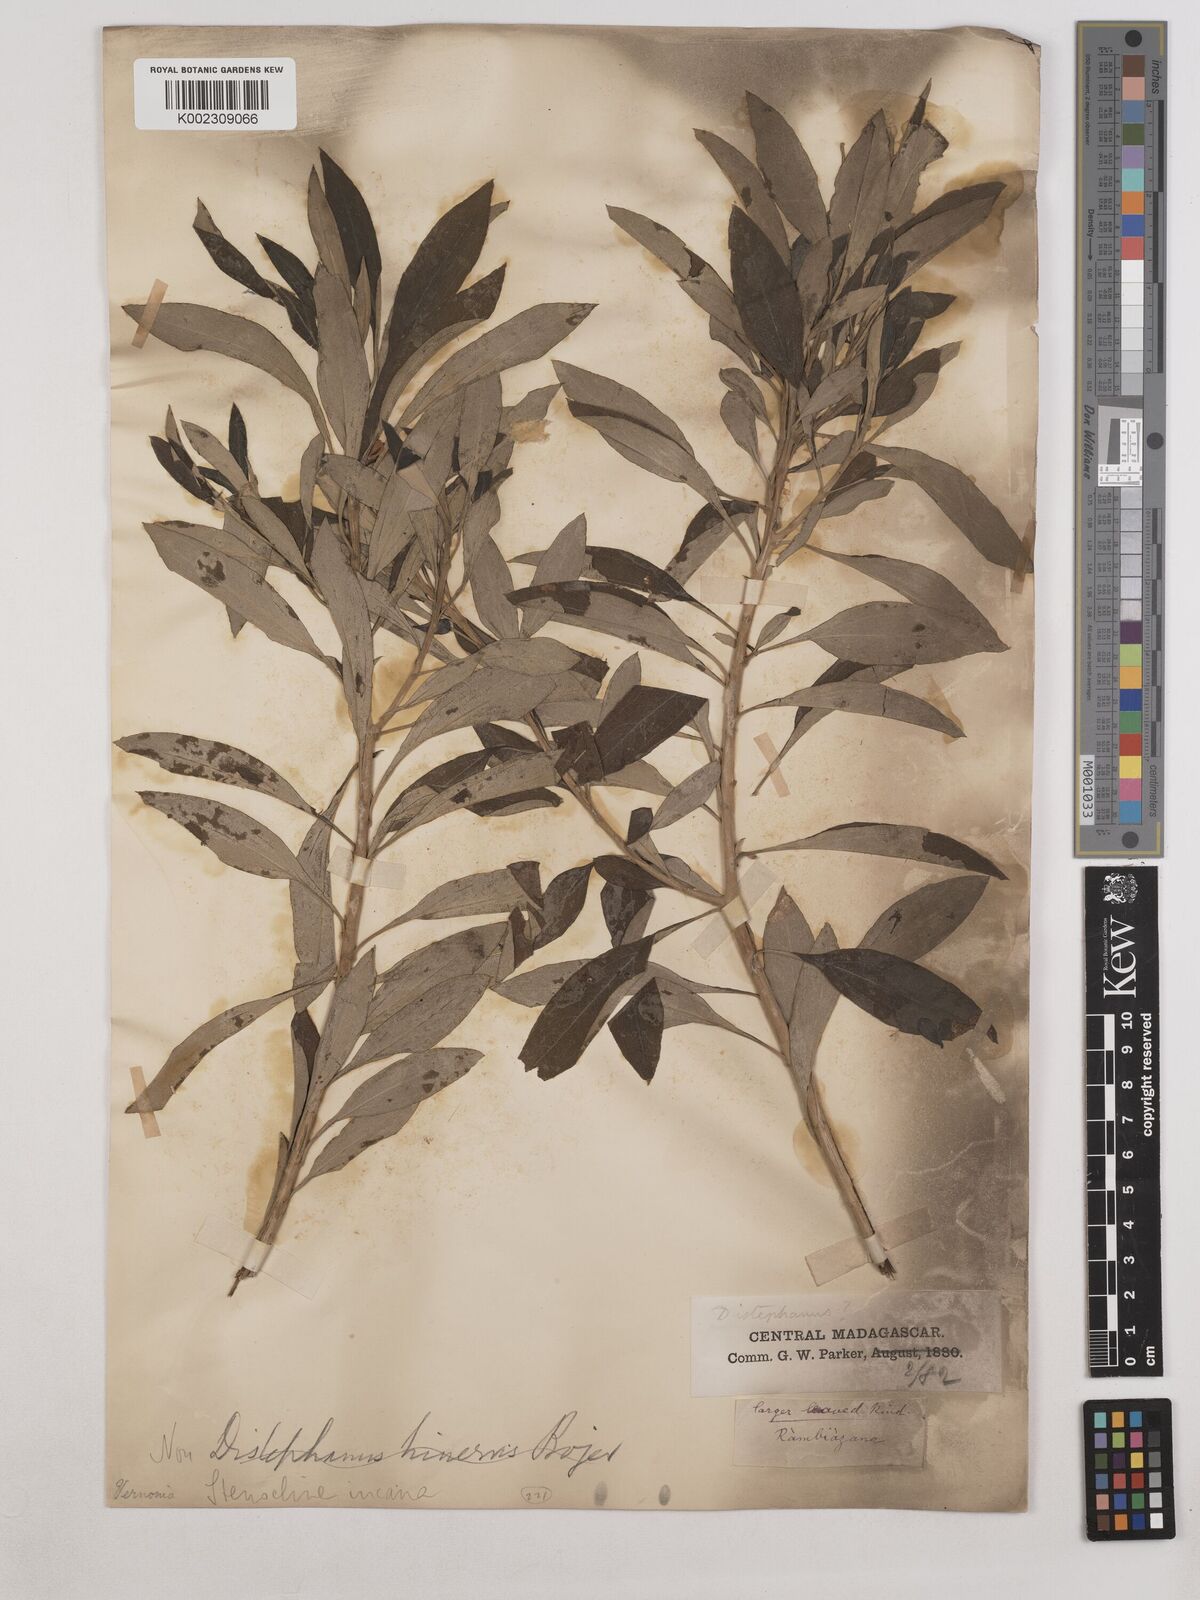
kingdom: Plantae
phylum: Tracheophyta
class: Magnoliopsida
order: Asterales
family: Asteraceae
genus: Helichrysum
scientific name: Helichrysum gymnocephalum
